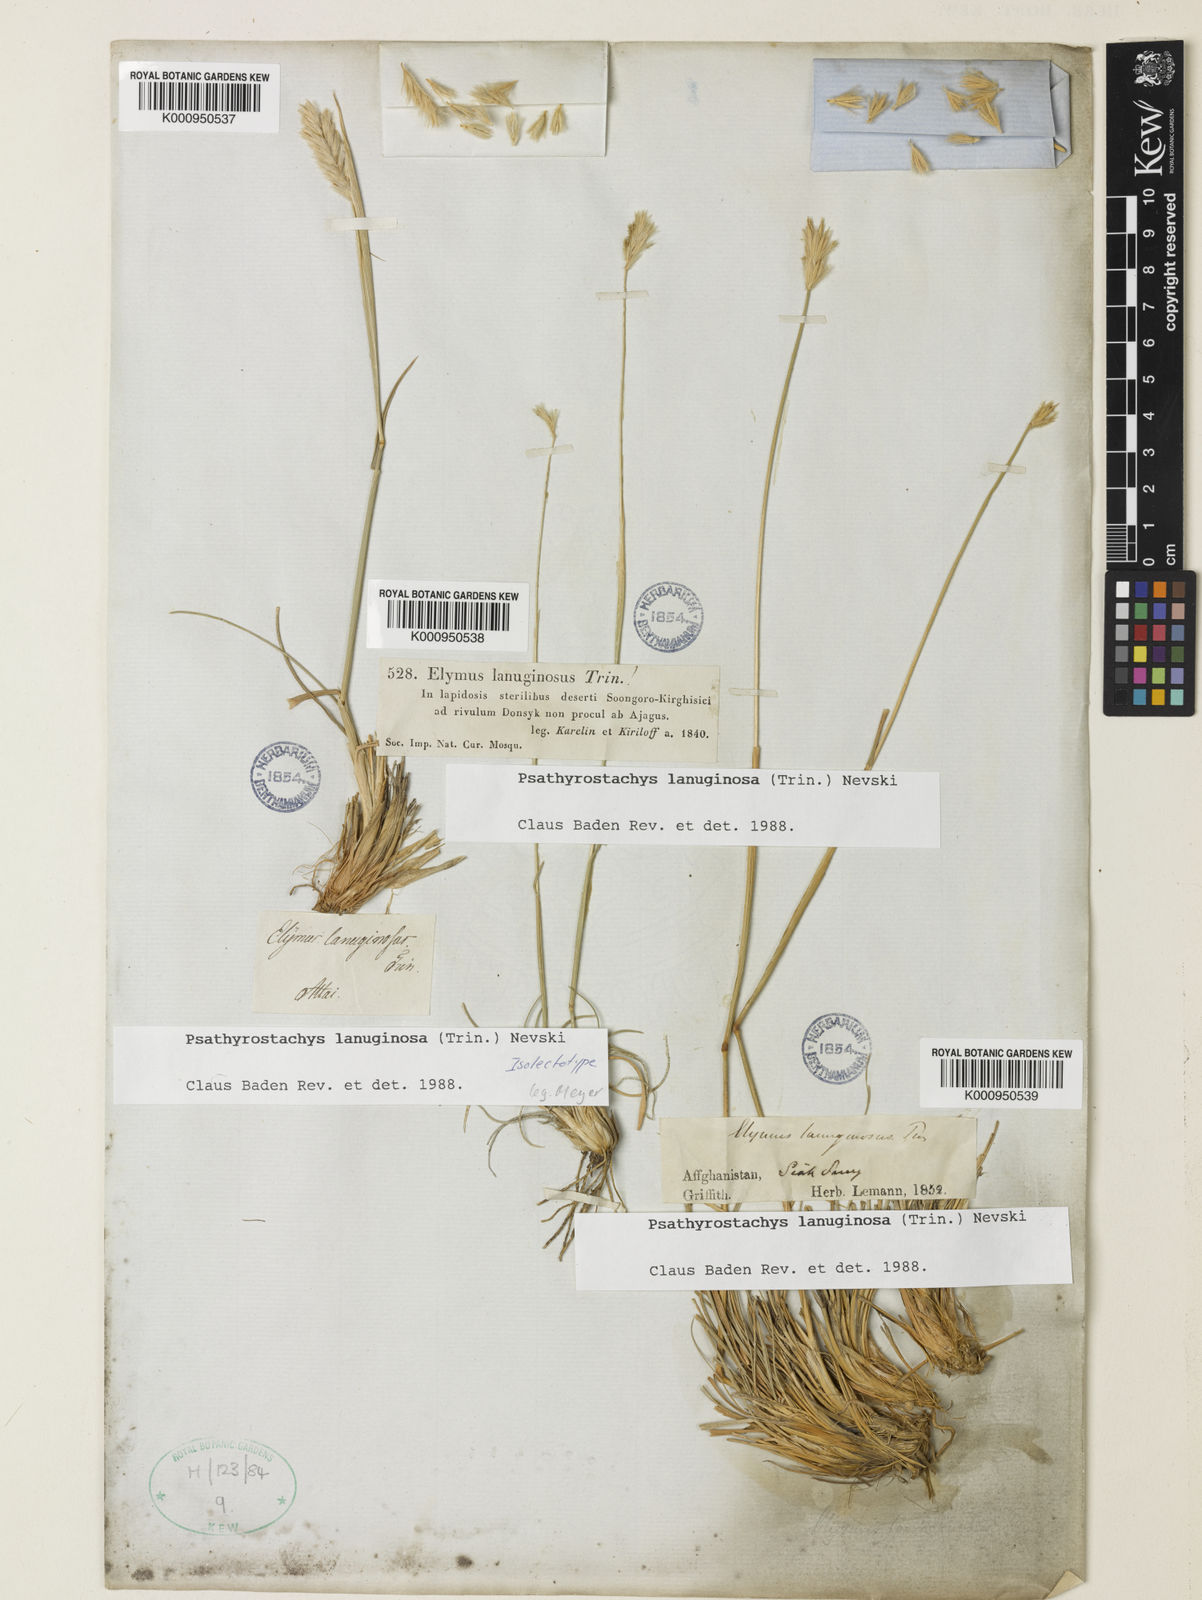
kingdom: Plantae
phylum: Tracheophyta
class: Liliopsida
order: Poales
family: Poaceae
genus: Psathyrostachys
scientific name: Psathyrostachys lanuginosa
